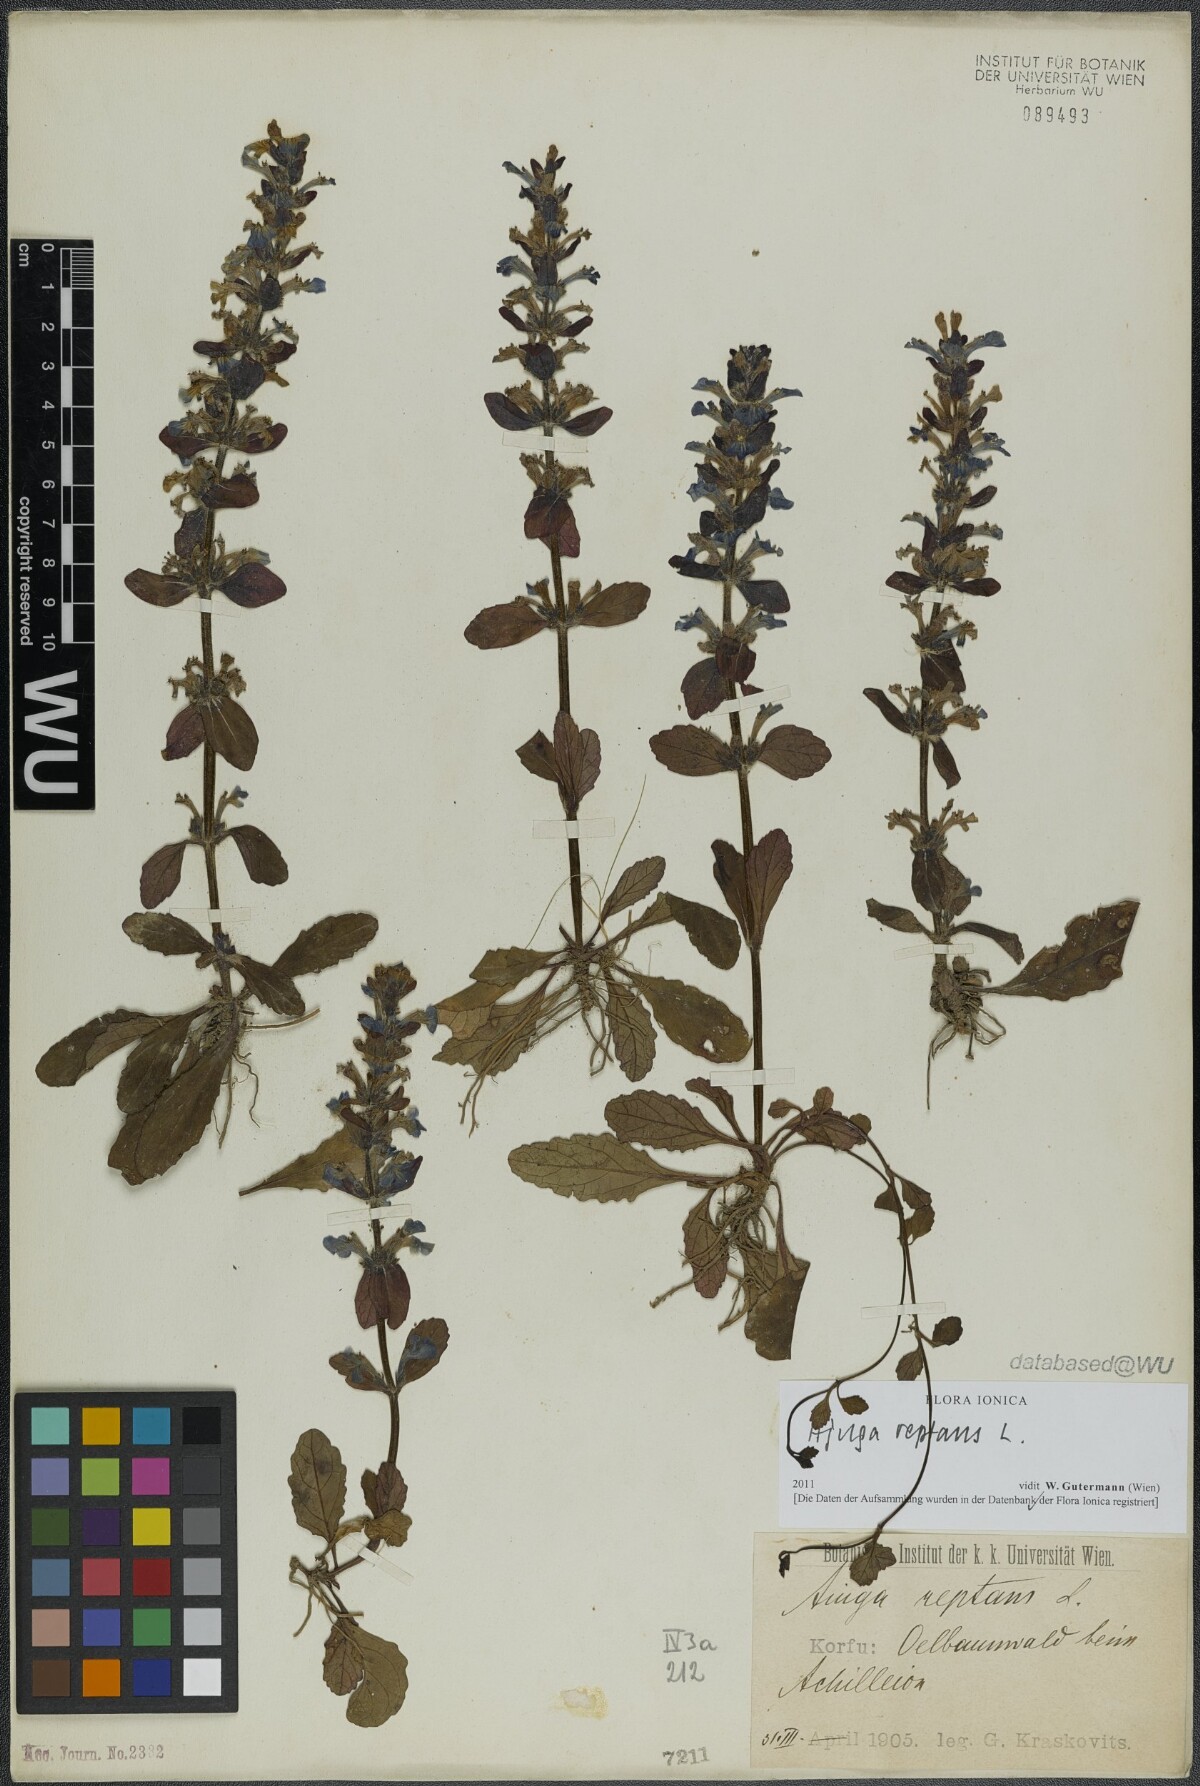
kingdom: Plantae
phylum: Tracheophyta
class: Magnoliopsida
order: Lamiales
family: Lamiaceae
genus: Ajuga
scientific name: Ajuga reptans
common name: Bugle
